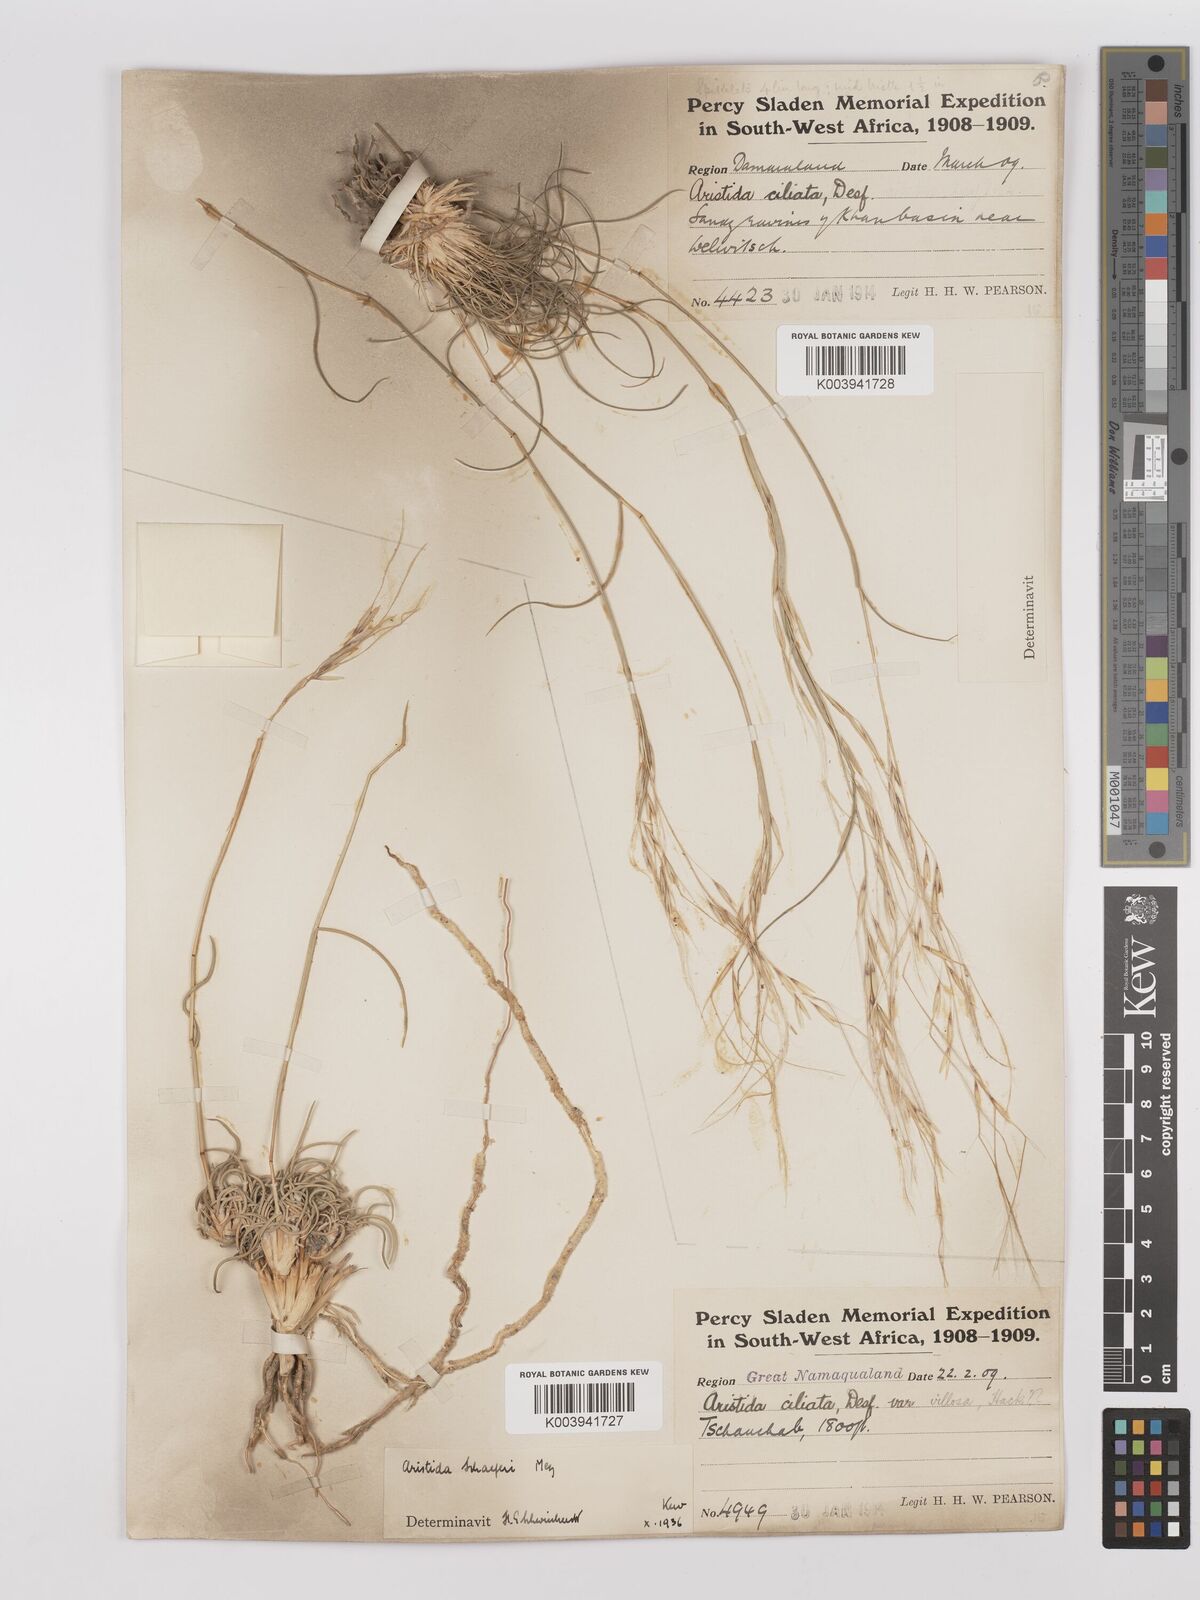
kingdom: Plantae
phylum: Tracheophyta
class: Liliopsida
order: Poales
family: Poaceae
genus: Stipagrostis
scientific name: Stipagrostis schaeferi
